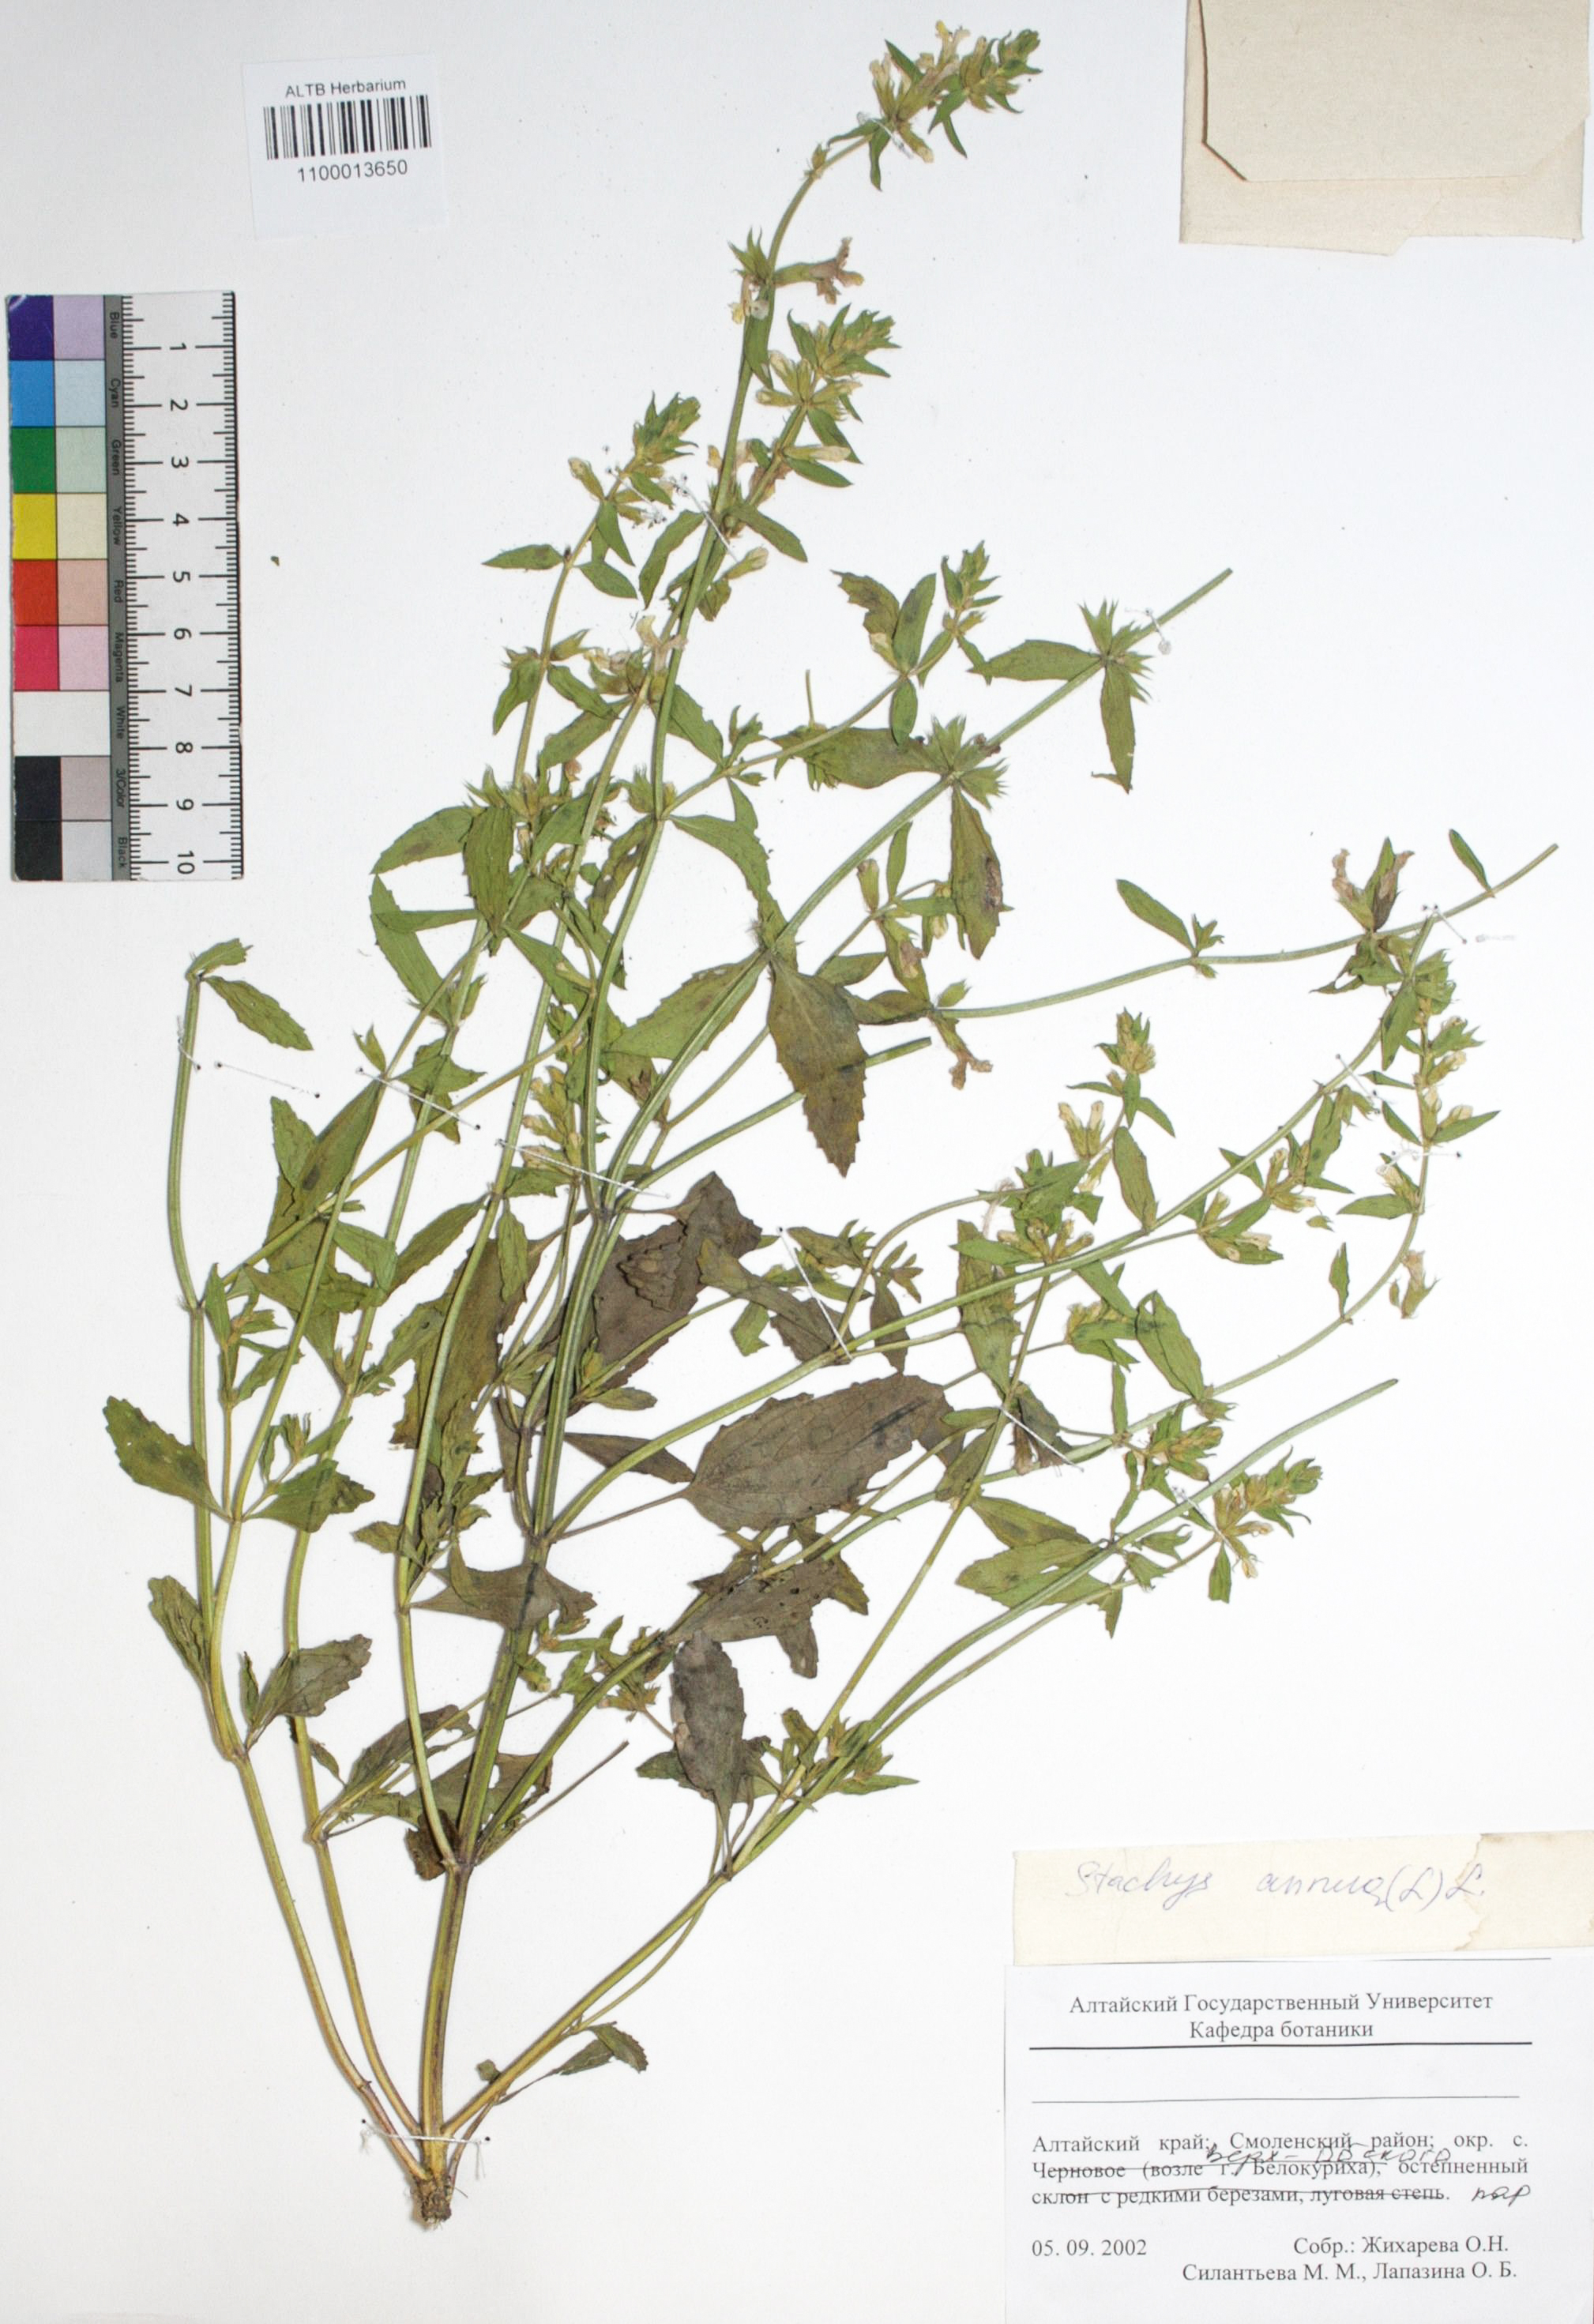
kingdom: Plantae
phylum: Tracheophyta
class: Magnoliopsida
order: Lamiales
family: Lamiaceae
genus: Stachys
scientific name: Stachys annua
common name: Annual yellow-woundwort
